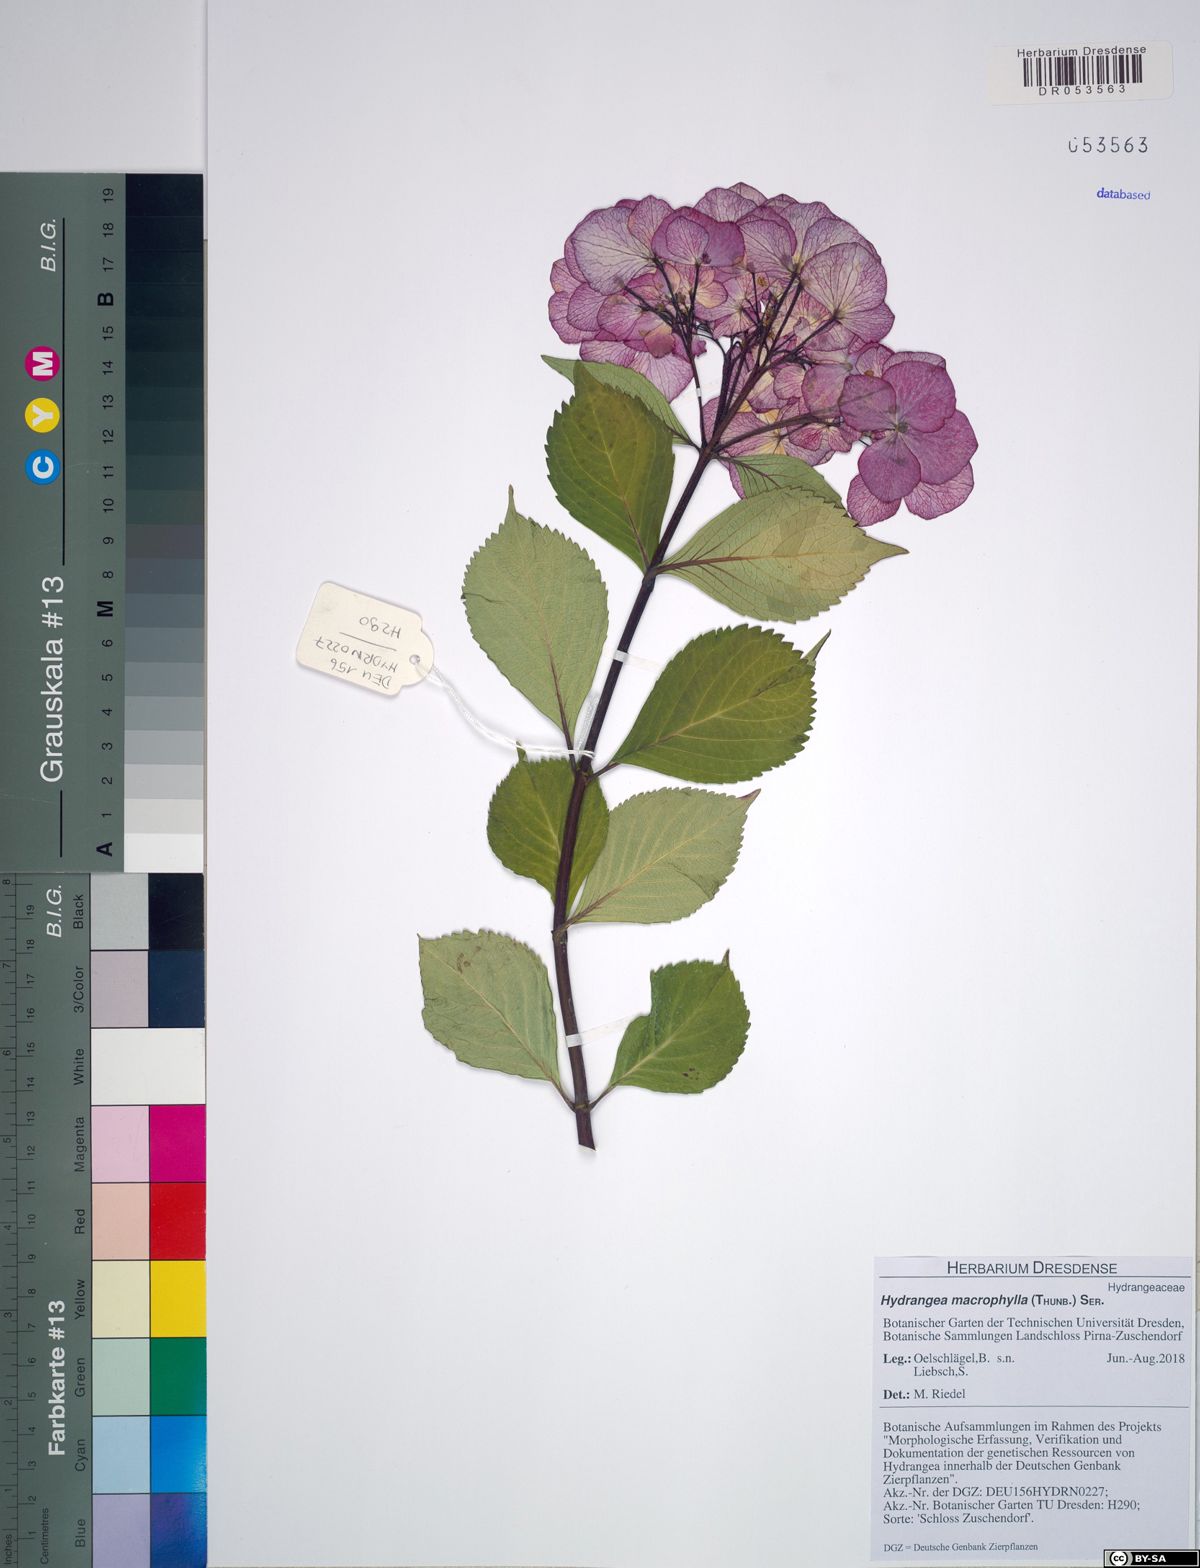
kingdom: Plantae
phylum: Tracheophyta
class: Magnoliopsida
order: Cornales
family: Hydrangeaceae
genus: Hydrangea
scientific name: Hydrangea macrophylla
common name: Hydrangea
